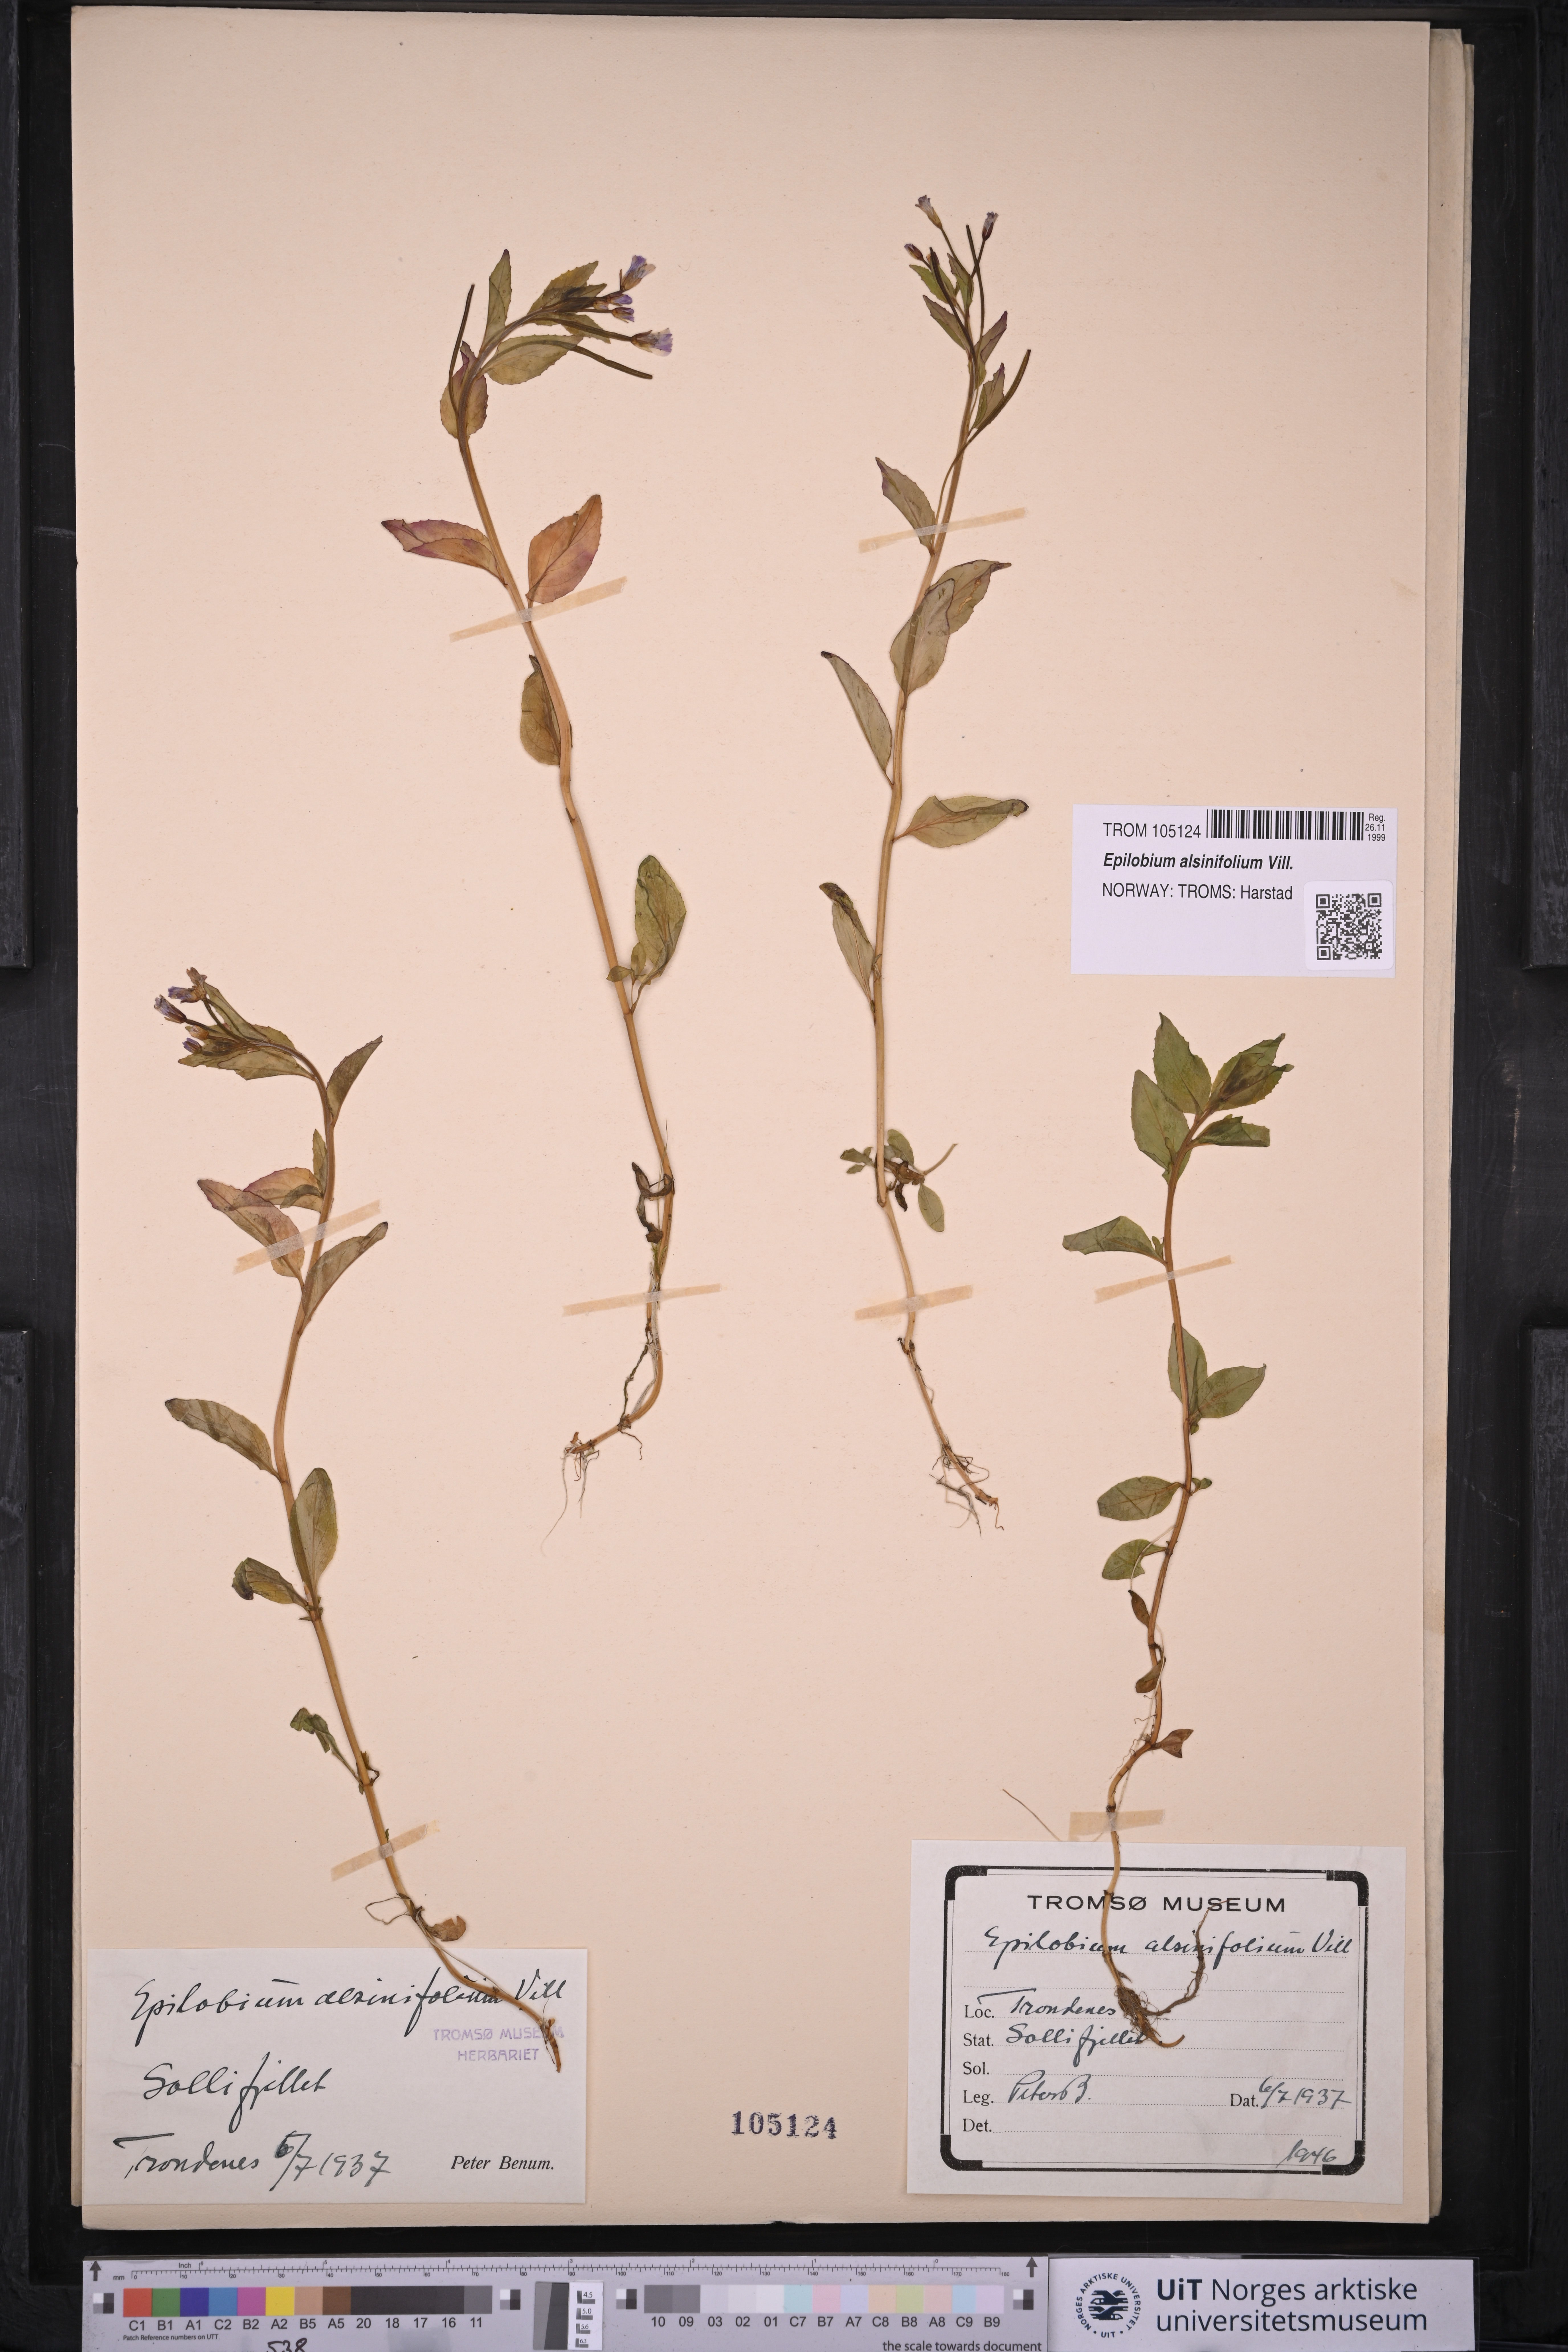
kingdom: Plantae
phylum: Tracheophyta
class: Magnoliopsida
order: Myrtales
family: Onagraceae
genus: Epilobium
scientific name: Epilobium alsinifolium
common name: Chickweed willowherb
